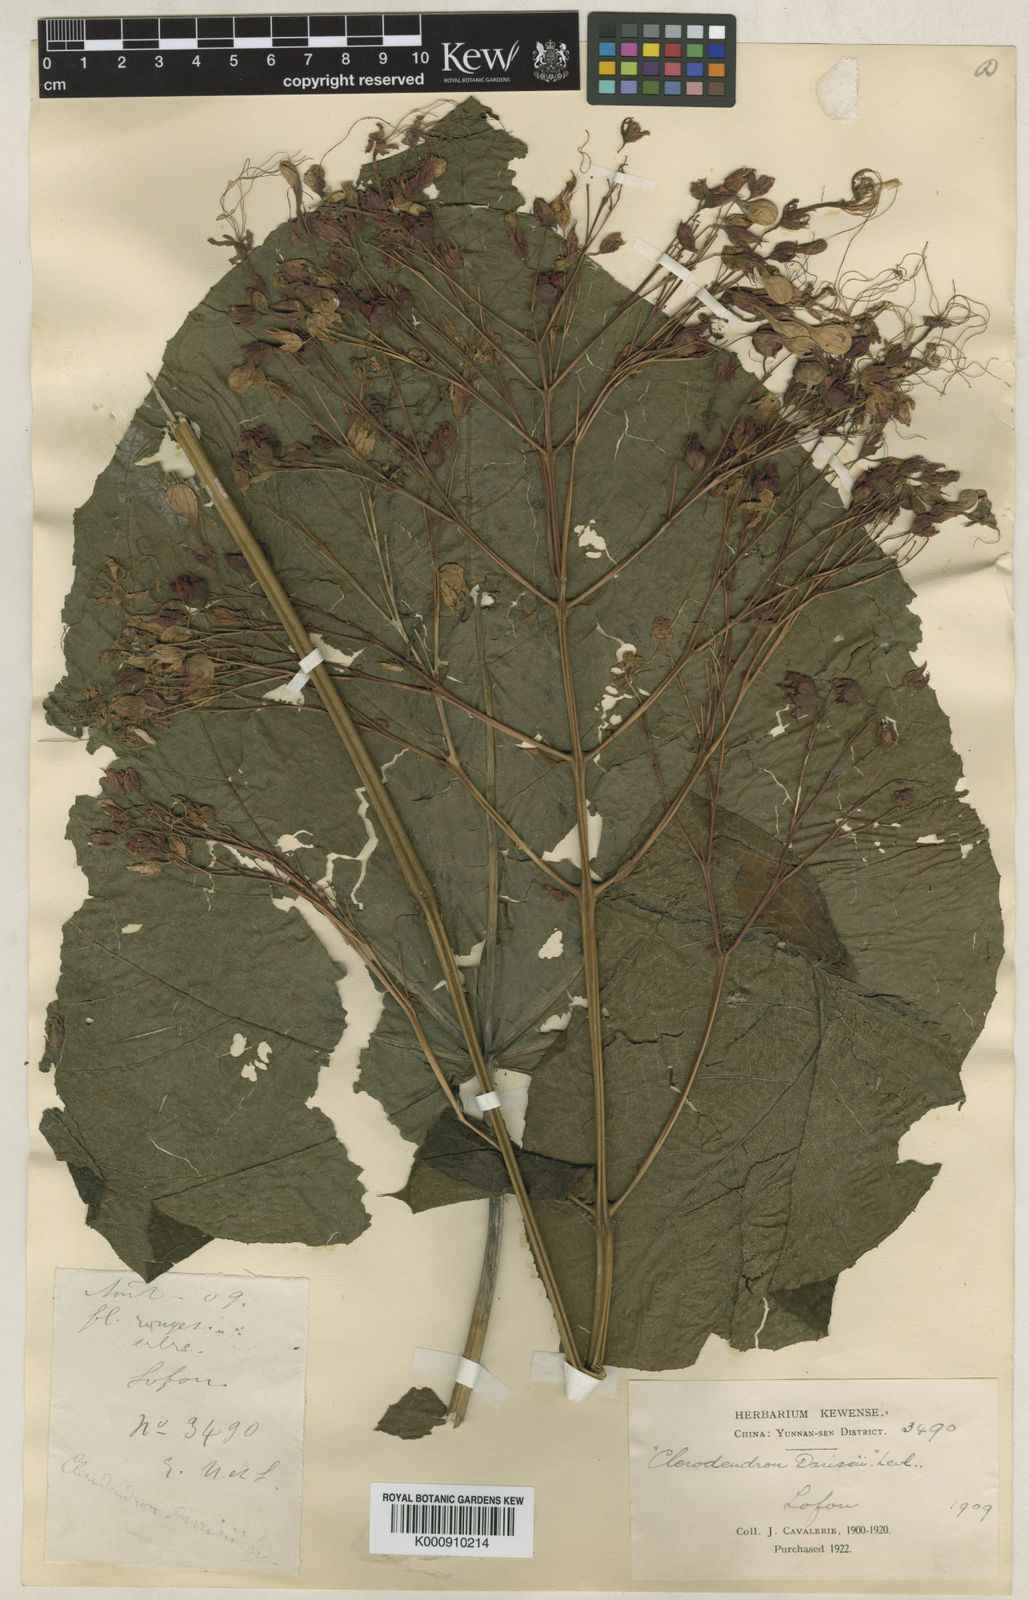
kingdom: Plantae
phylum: Tracheophyta
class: Magnoliopsida
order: Lamiales
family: Lamiaceae
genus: Clerodendrum
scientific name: Clerodendrum
